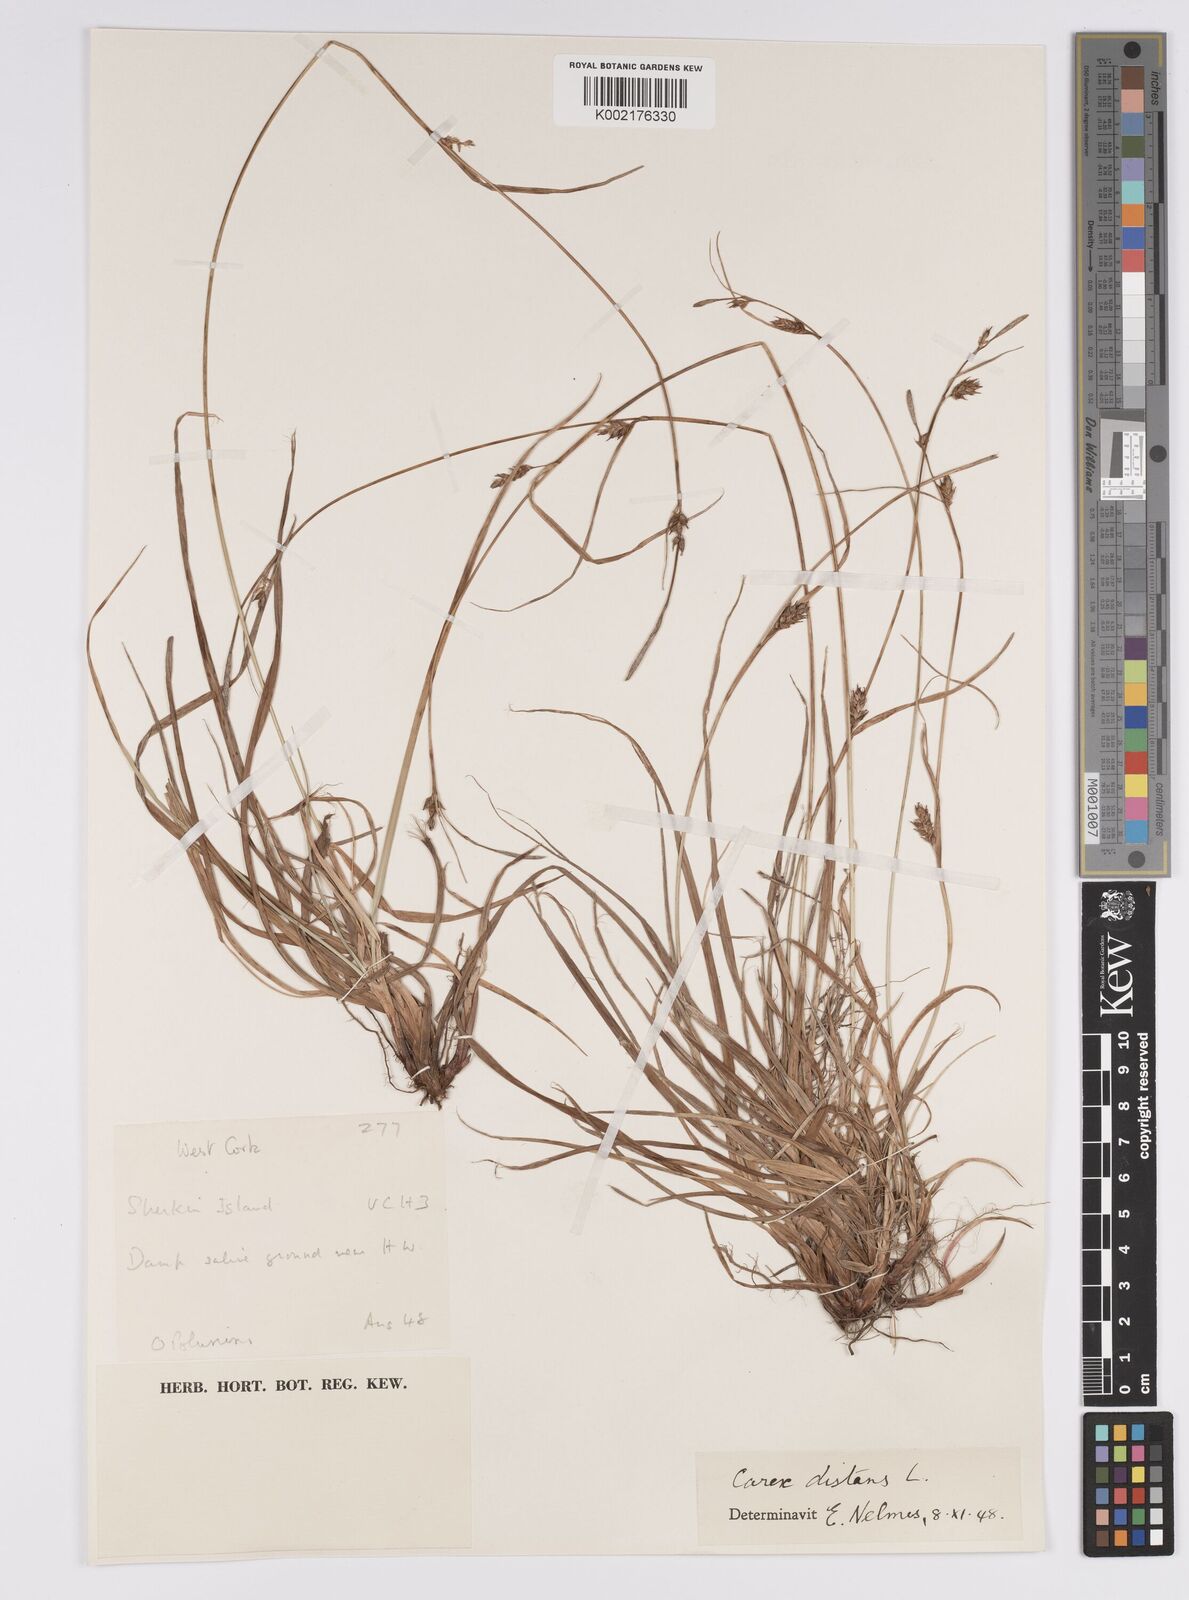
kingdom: Plantae
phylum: Tracheophyta
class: Liliopsida
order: Poales
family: Cyperaceae
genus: Carex
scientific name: Carex distans
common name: Distant sedge
